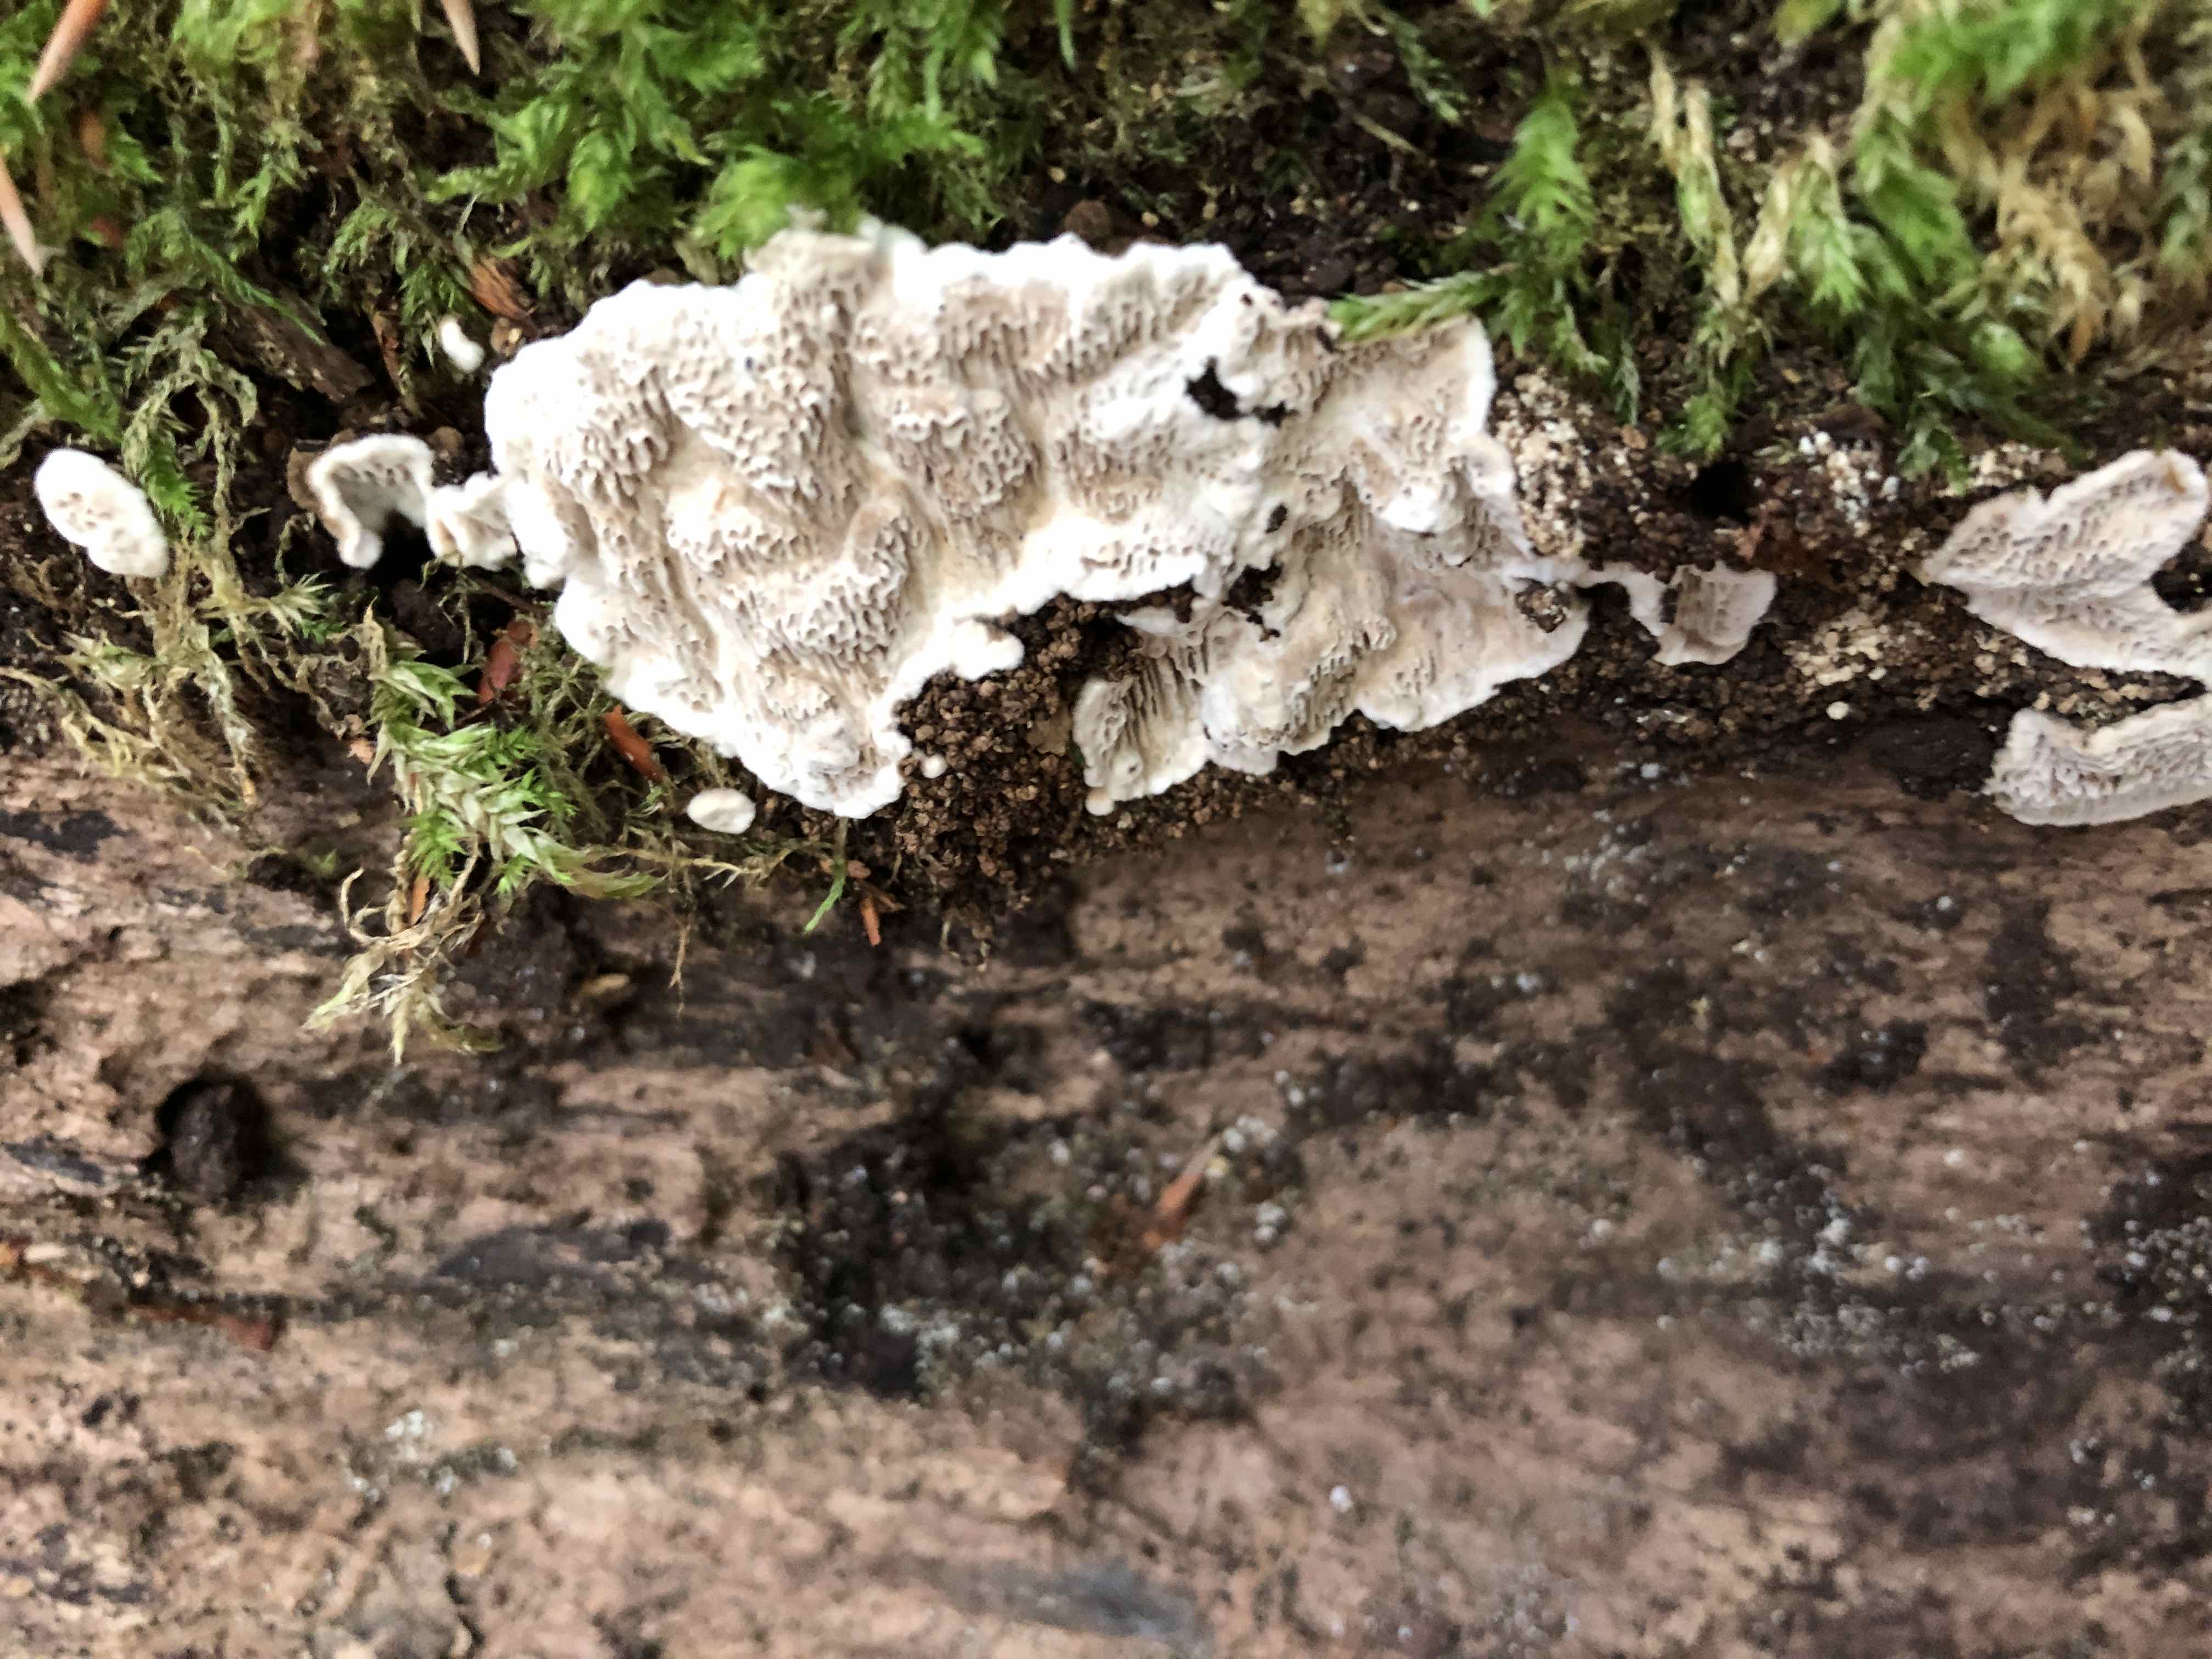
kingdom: Fungi
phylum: Basidiomycota
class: Agaricomycetes
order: Polyporales
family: Polyporaceae
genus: Podofomes
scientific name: Podofomes mollis
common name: blød begporesvamp
